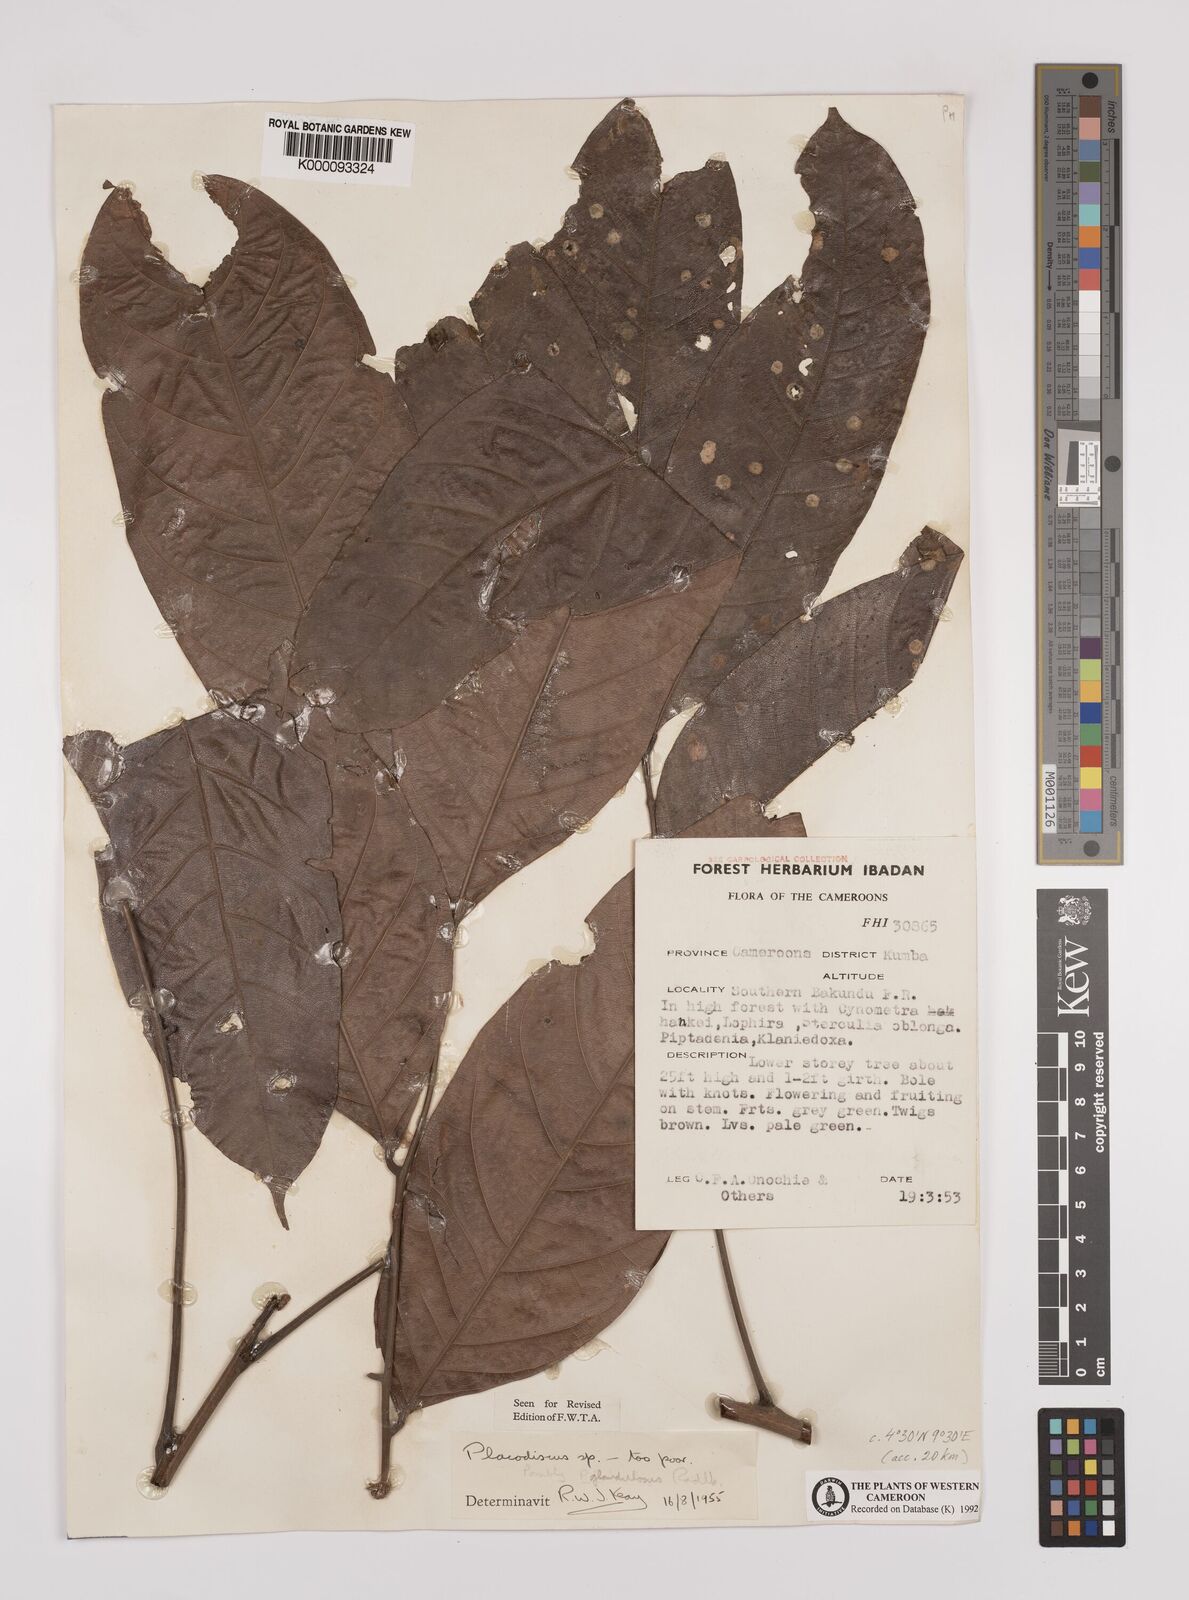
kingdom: Plantae
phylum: Tracheophyta
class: Magnoliopsida
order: Sapindales
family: Sapindaceae
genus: Placodiscus
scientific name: Placodiscus glandulosus
